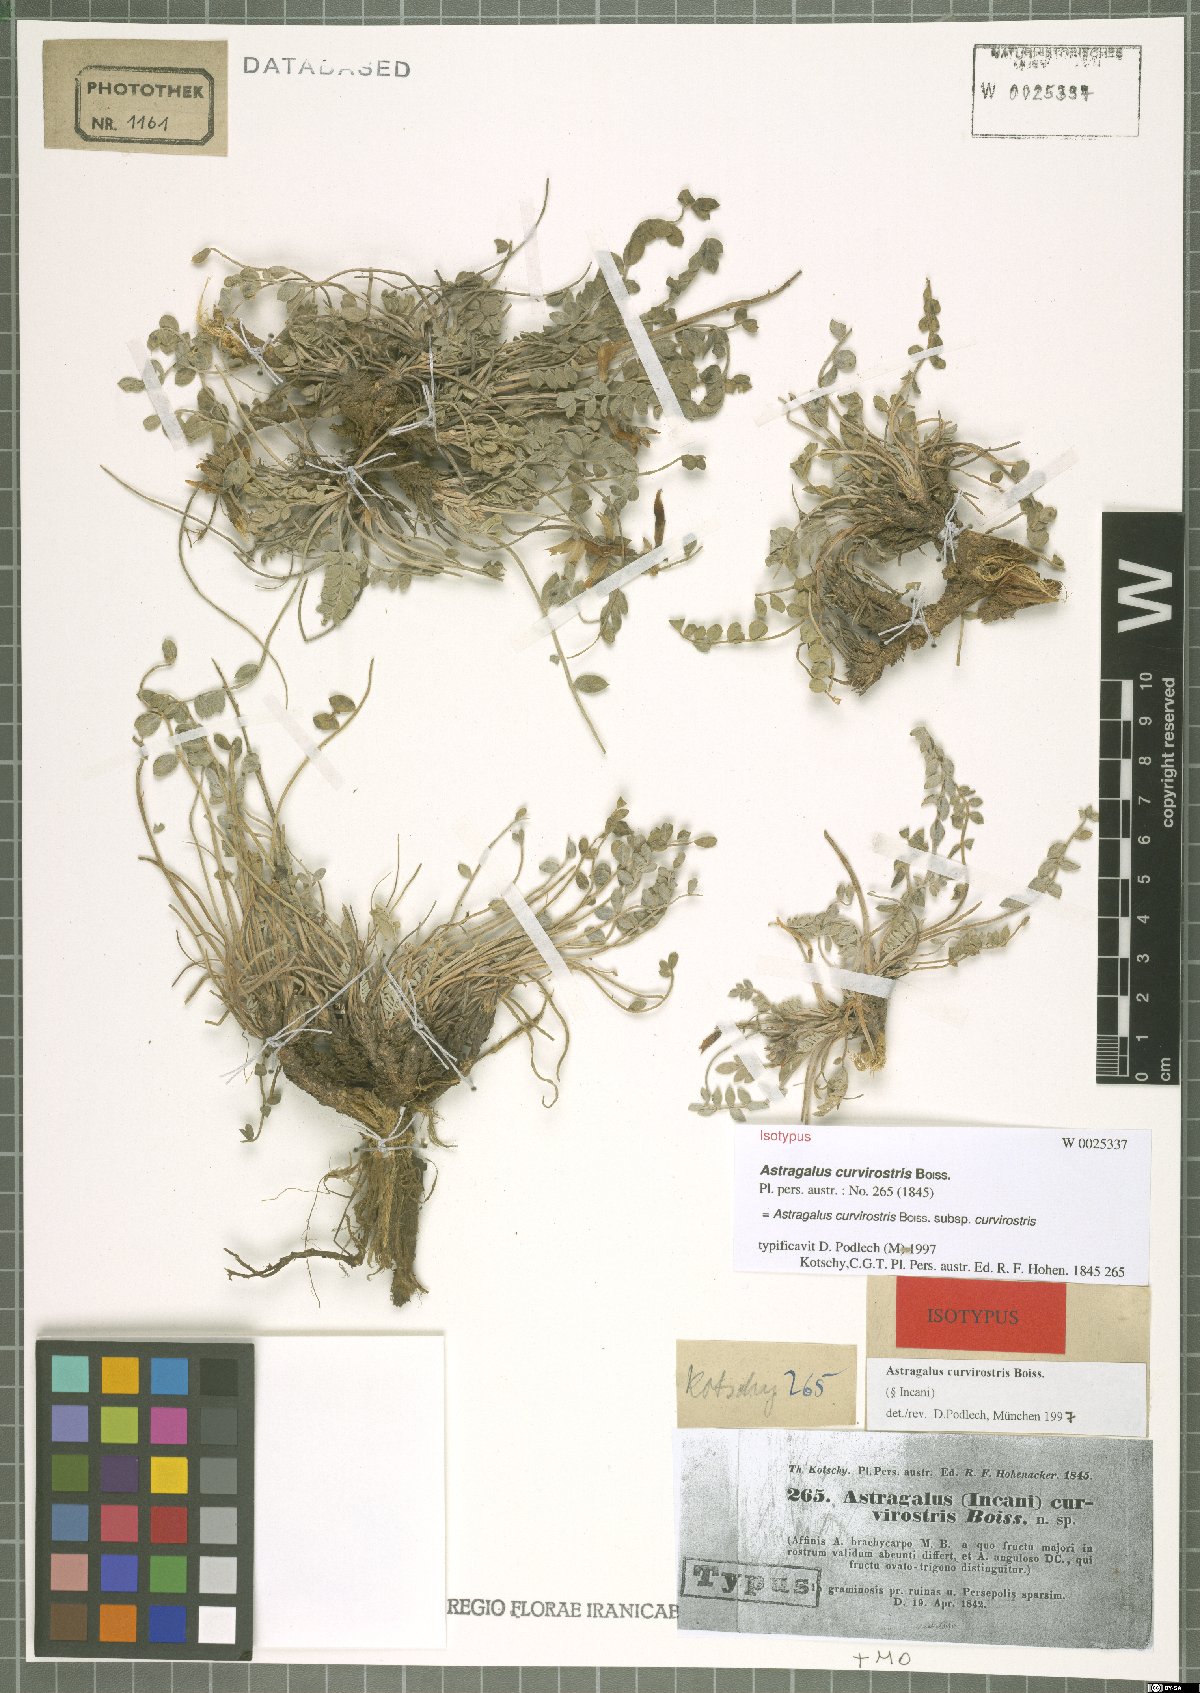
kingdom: Plantae
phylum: Tracheophyta
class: Magnoliopsida
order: Fabales
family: Fabaceae
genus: Astragalus
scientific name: Astragalus curvirostris
